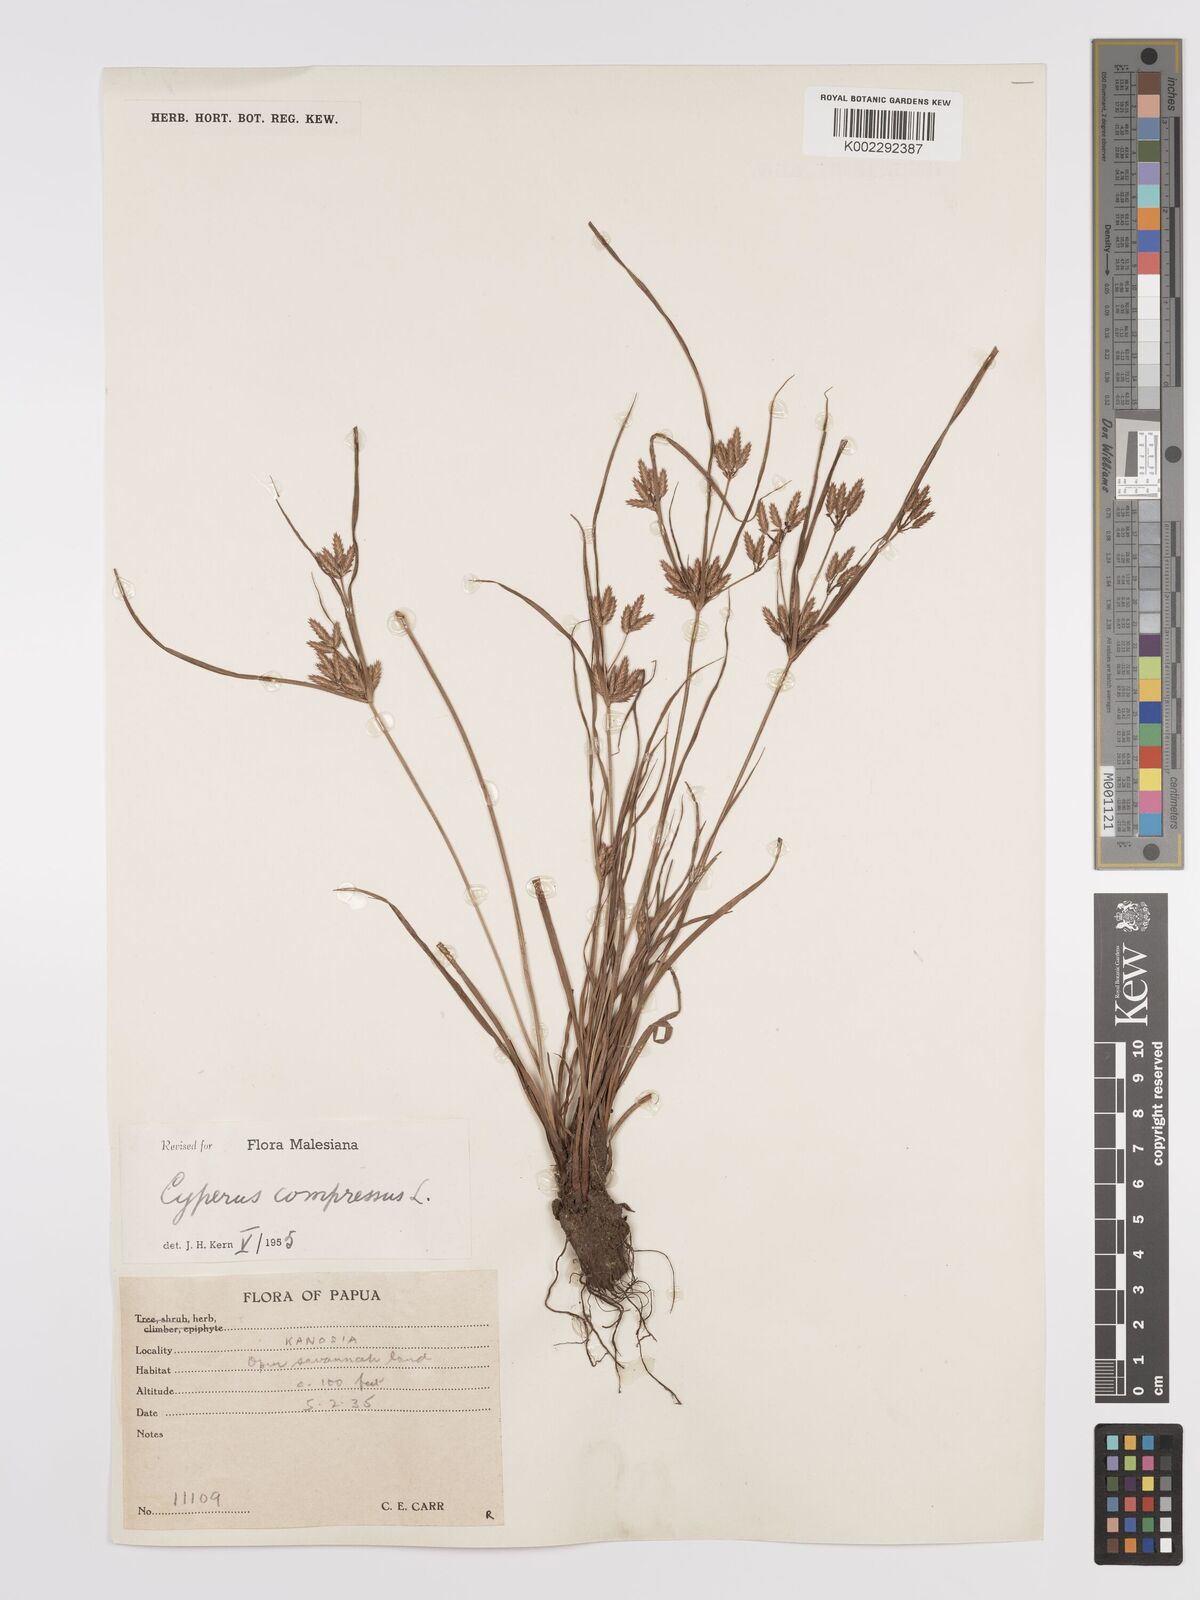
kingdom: Plantae
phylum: Tracheophyta
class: Liliopsida
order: Poales
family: Cyperaceae
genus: Cyperus
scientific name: Cyperus compressus
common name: Poorland flatsedge
